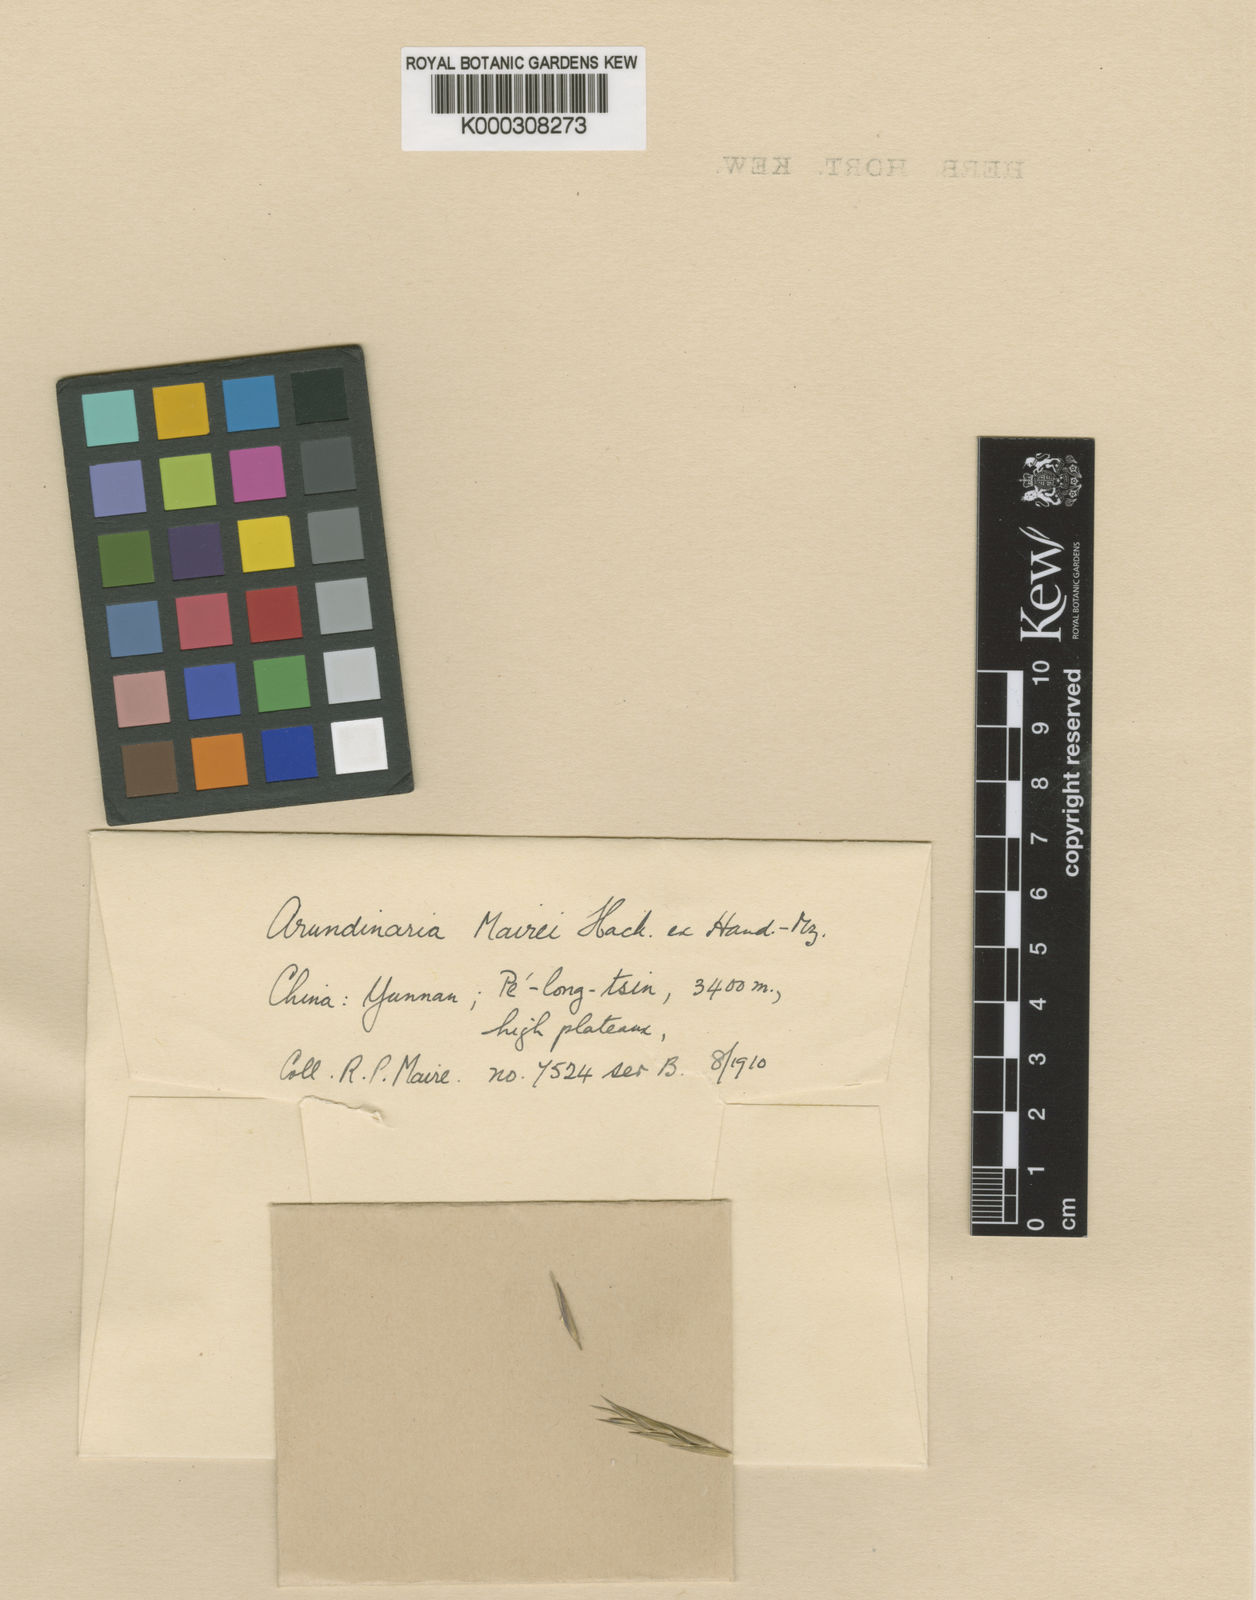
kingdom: Plantae
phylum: Tracheophyta
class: Liliopsida
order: Poales
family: Poaceae
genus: Borinda
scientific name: Borinda mairei
